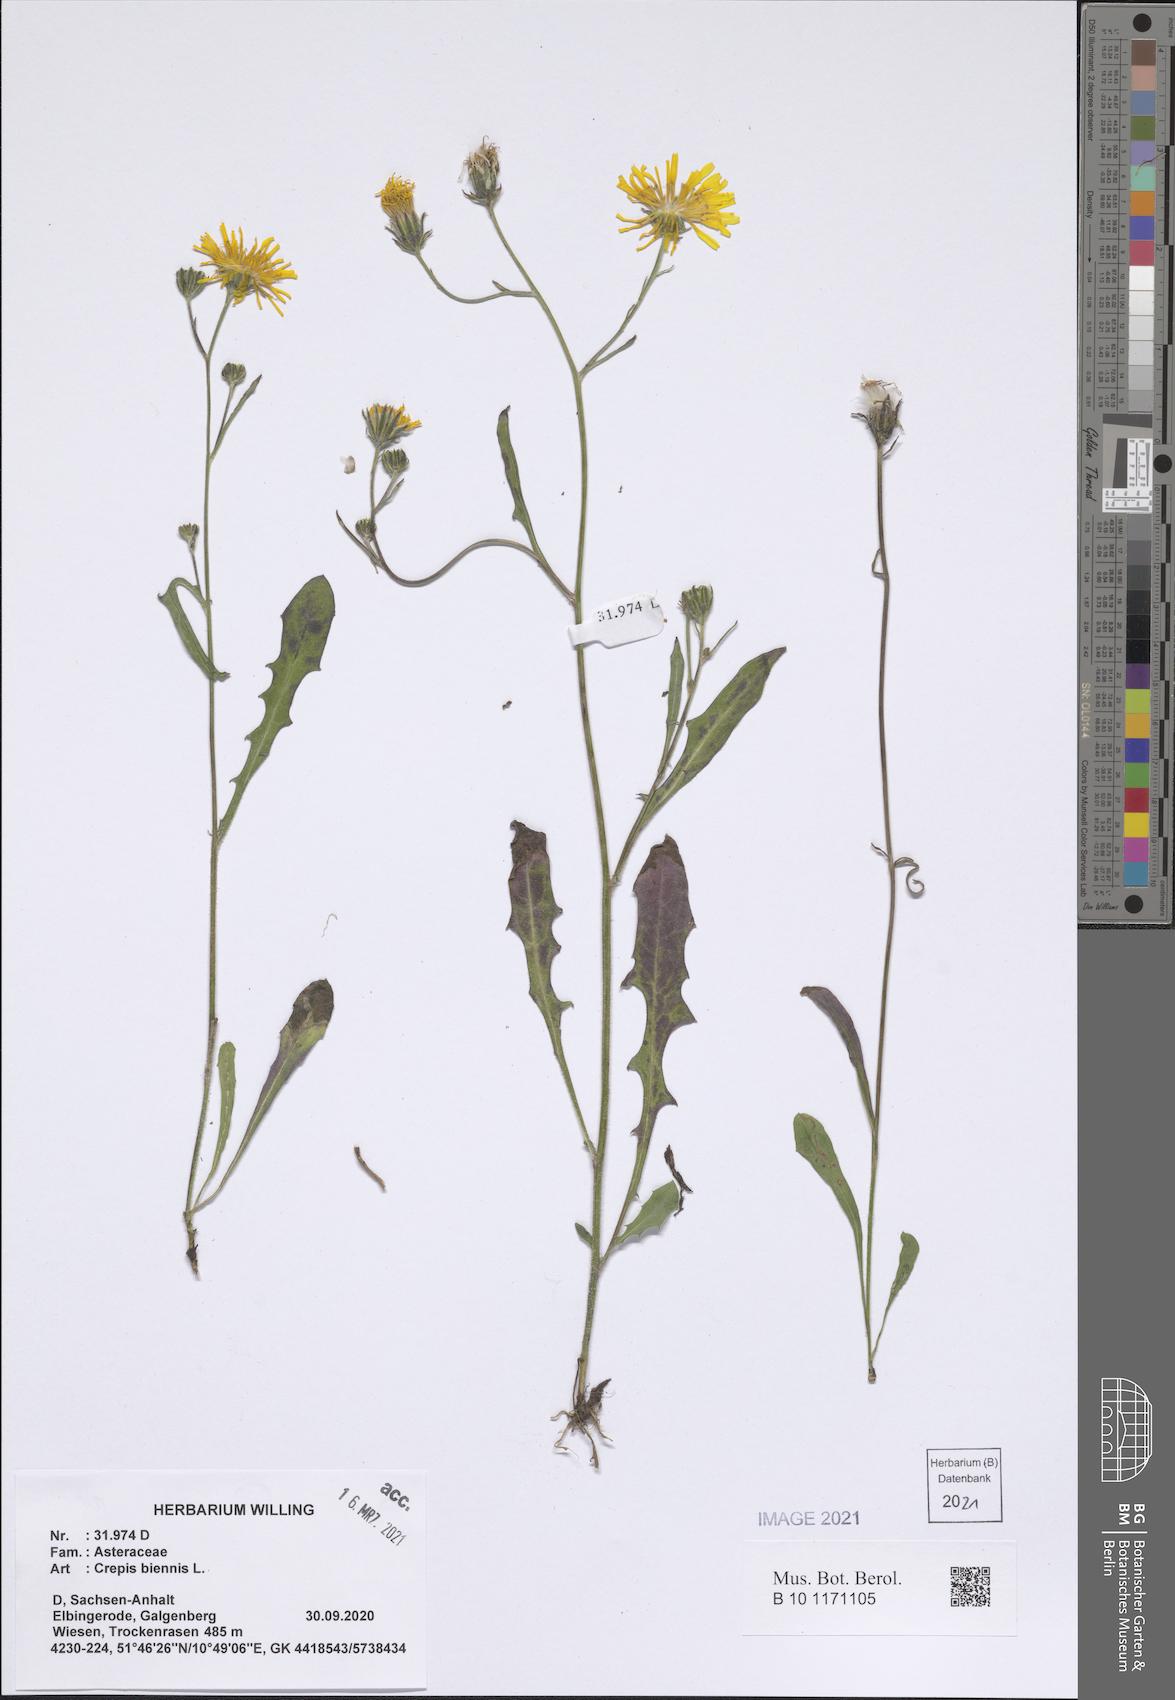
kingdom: Plantae
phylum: Tracheophyta
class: Magnoliopsida
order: Asterales
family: Asteraceae
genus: Crepis
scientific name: Crepis biennis
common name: Rough hawk's-beard
